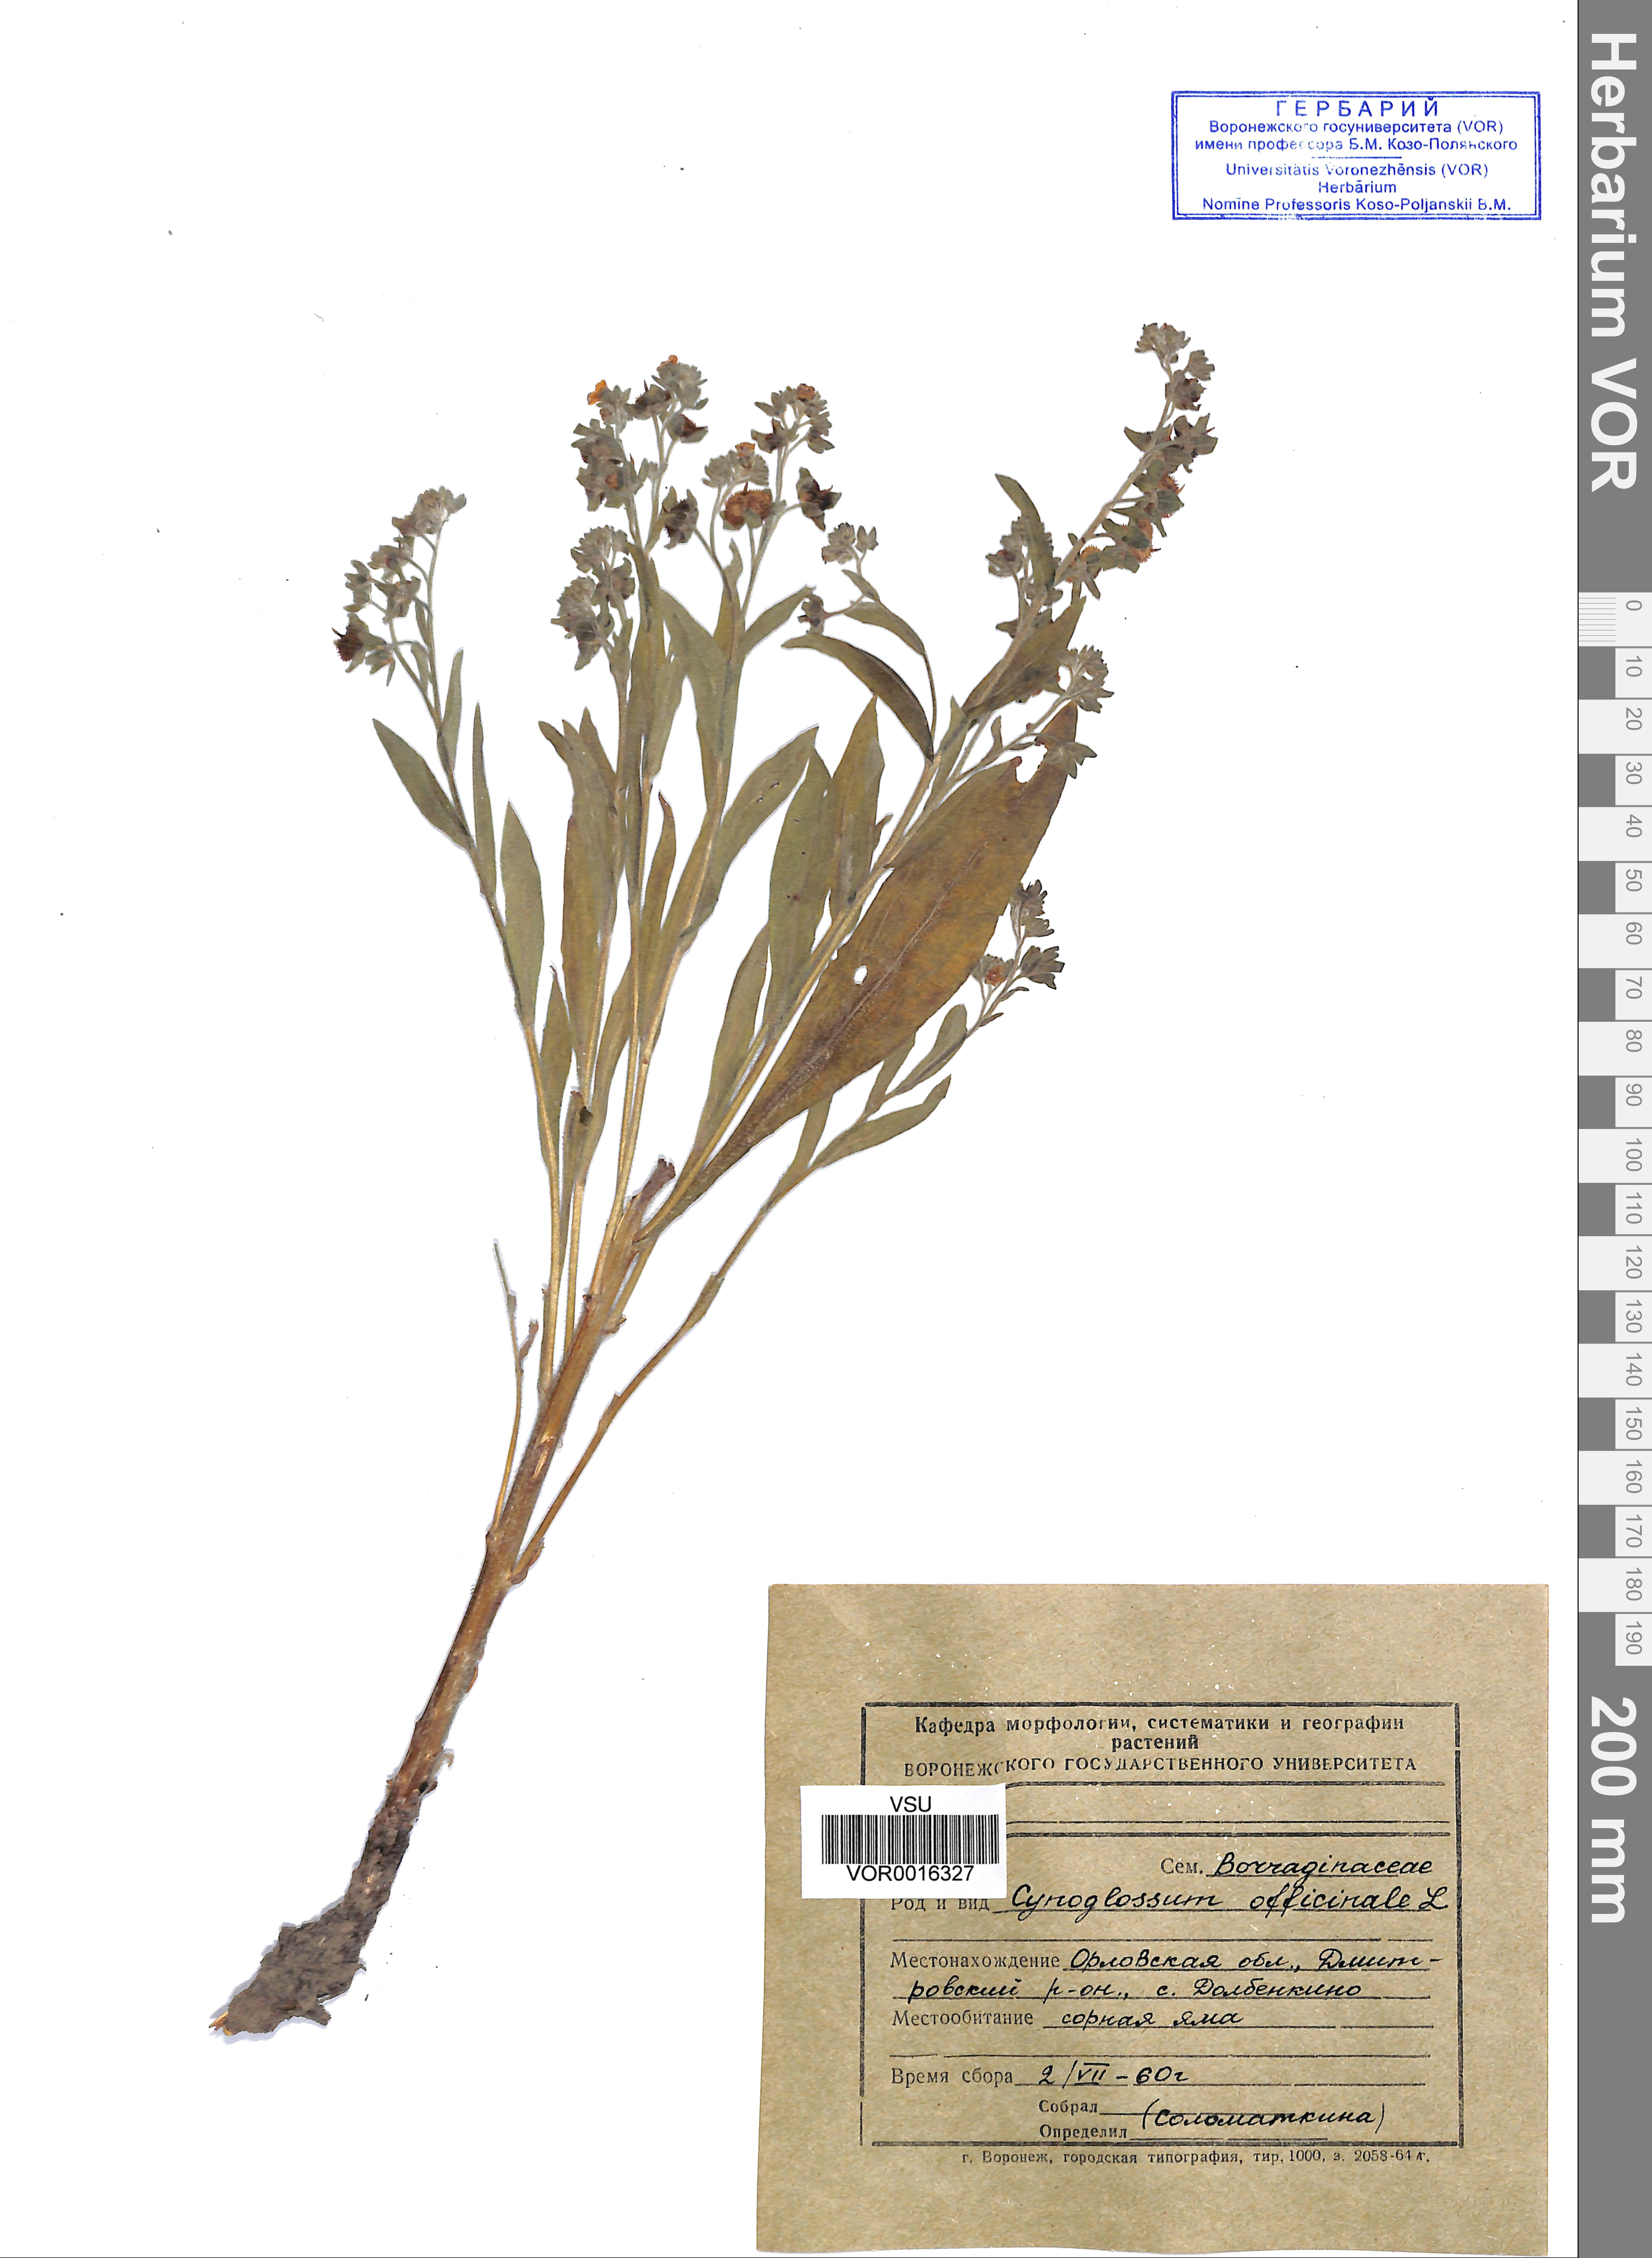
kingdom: Plantae
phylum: Tracheophyta
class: Magnoliopsida
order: Boraginales
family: Boraginaceae
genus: Cynoglossum
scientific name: Cynoglossum officinale
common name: Hound's-tongue
